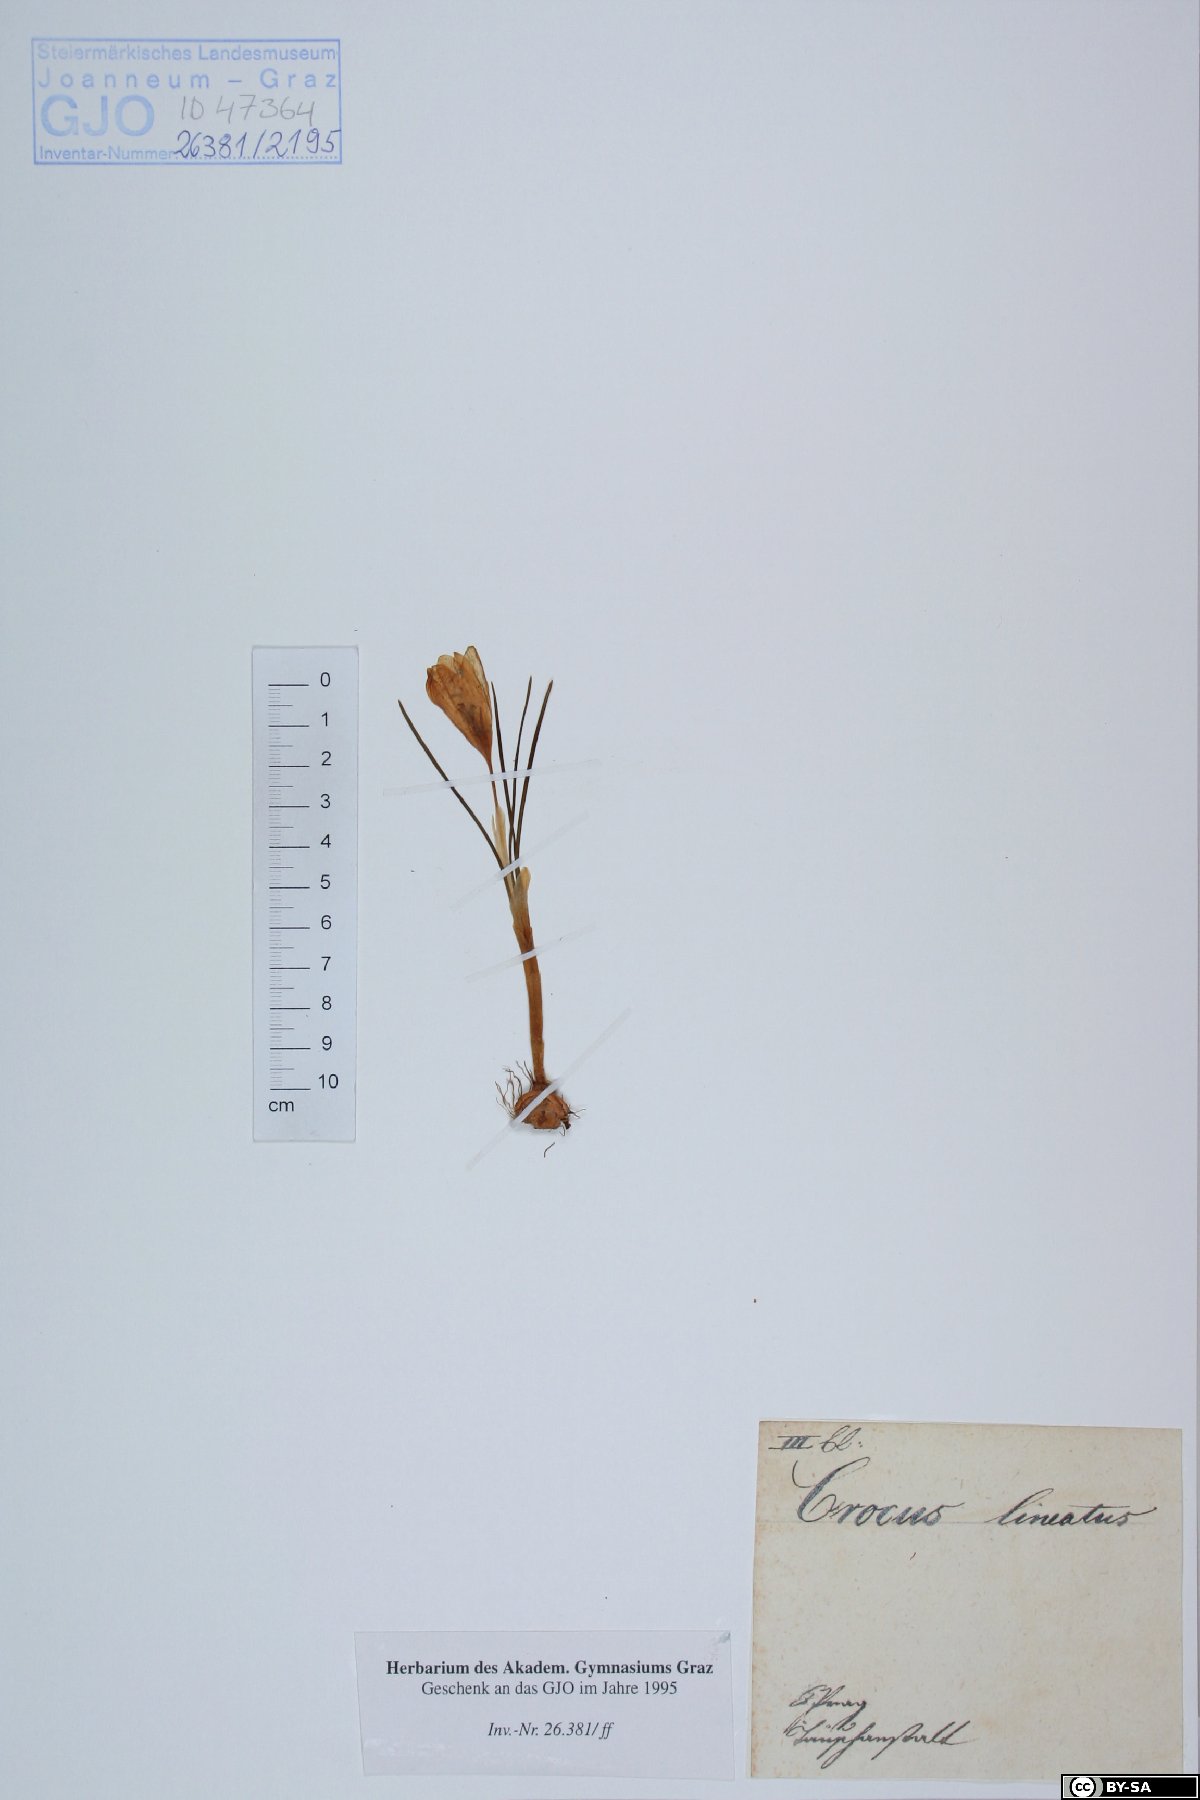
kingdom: Plantae
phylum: Tracheophyta
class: Liliopsida
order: Asparagales
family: Iridaceae
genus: Crocus
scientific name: Crocus biflorus
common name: Silvery crocus
